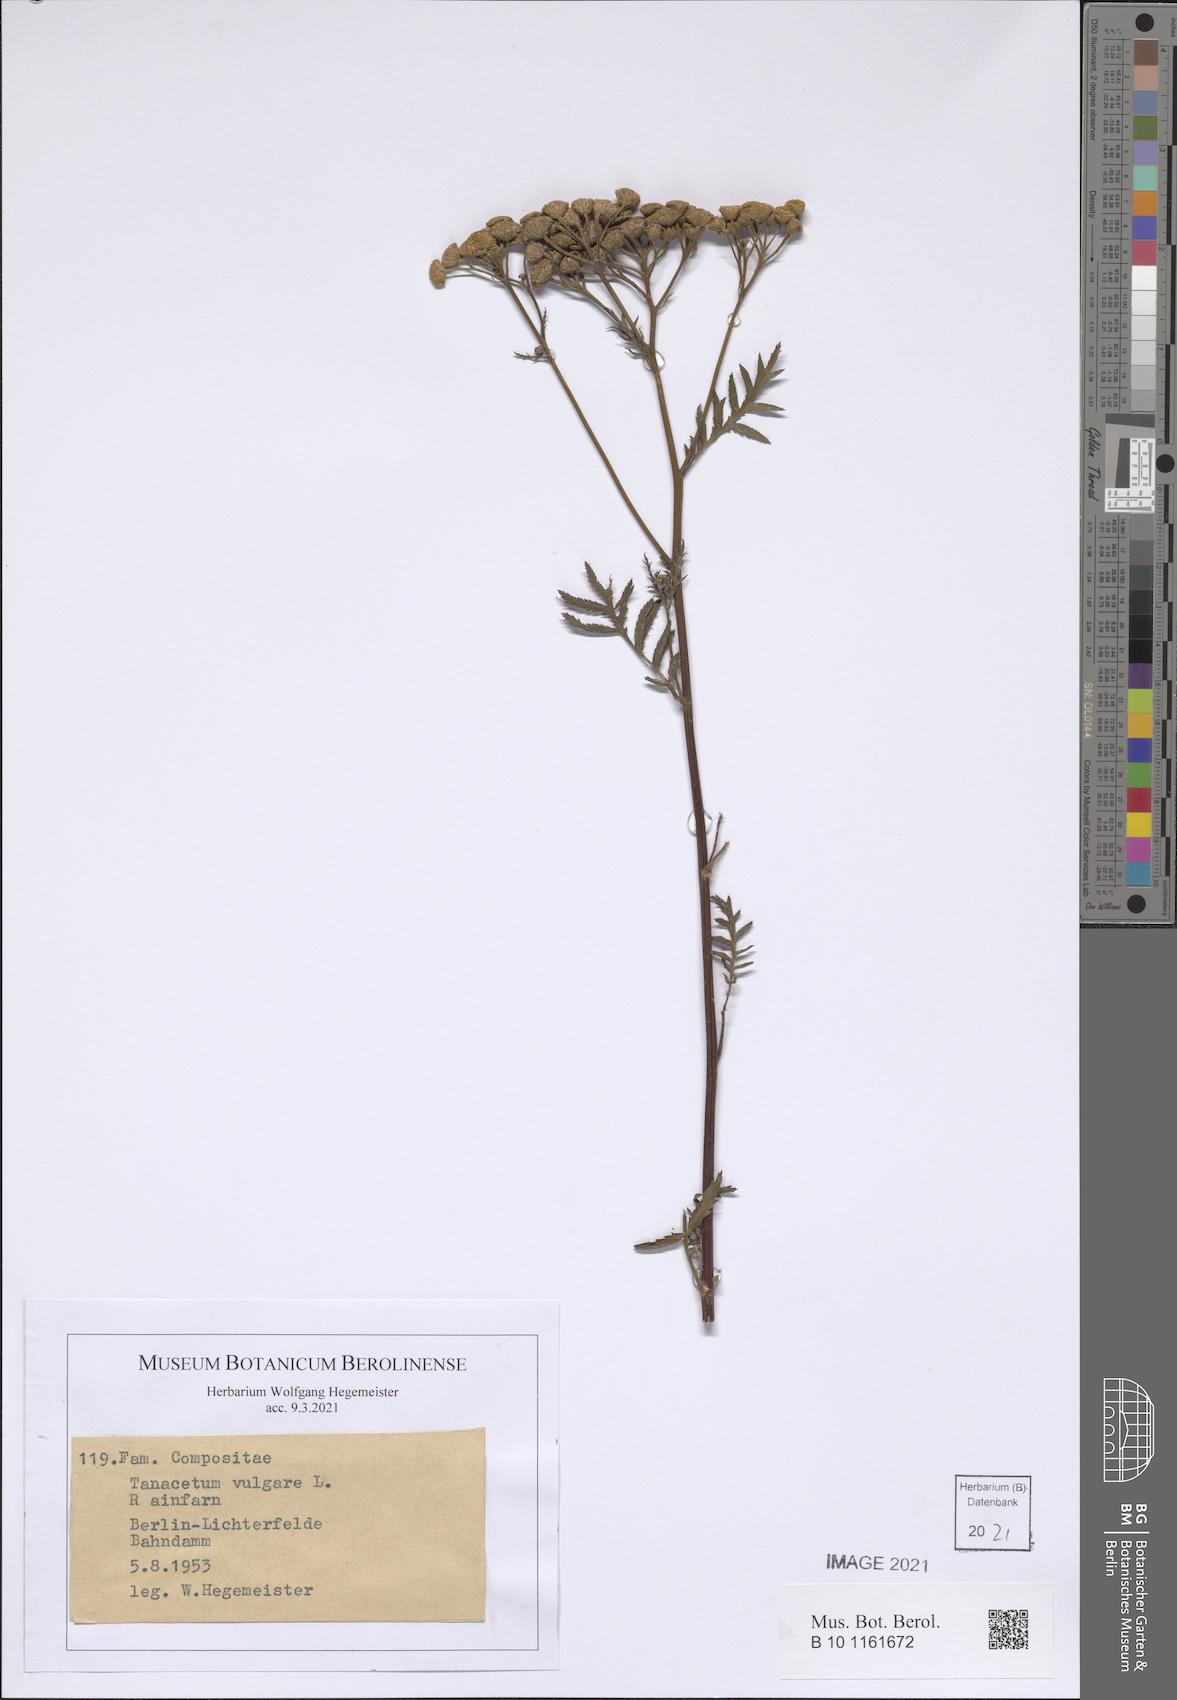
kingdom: Plantae
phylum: Tracheophyta
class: Magnoliopsida
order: Asterales
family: Asteraceae
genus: Tanacetum
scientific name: Tanacetum vulgare
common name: Common tansy
